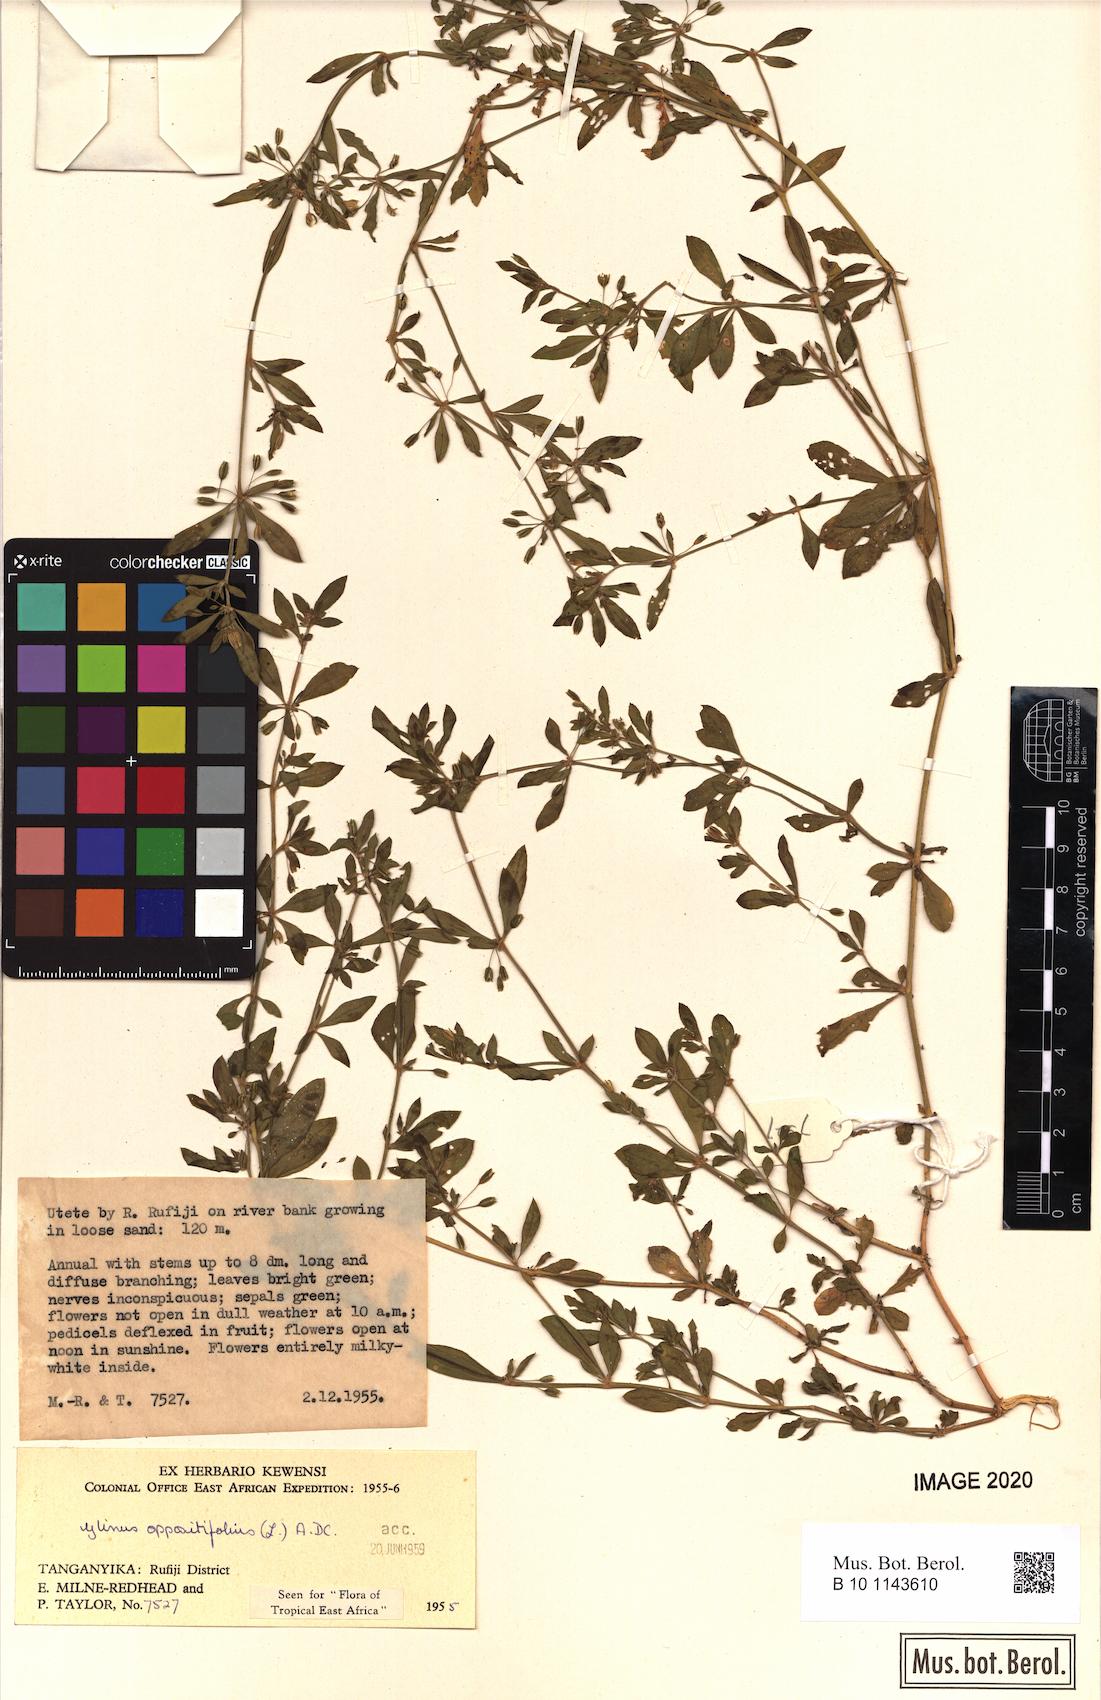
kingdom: Plantae
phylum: Tracheophyta
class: Magnoliopsida
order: Caryophyllales
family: Molluginaceae
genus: Glinus
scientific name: Glinus oppositifolius
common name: Slender carpetweed
